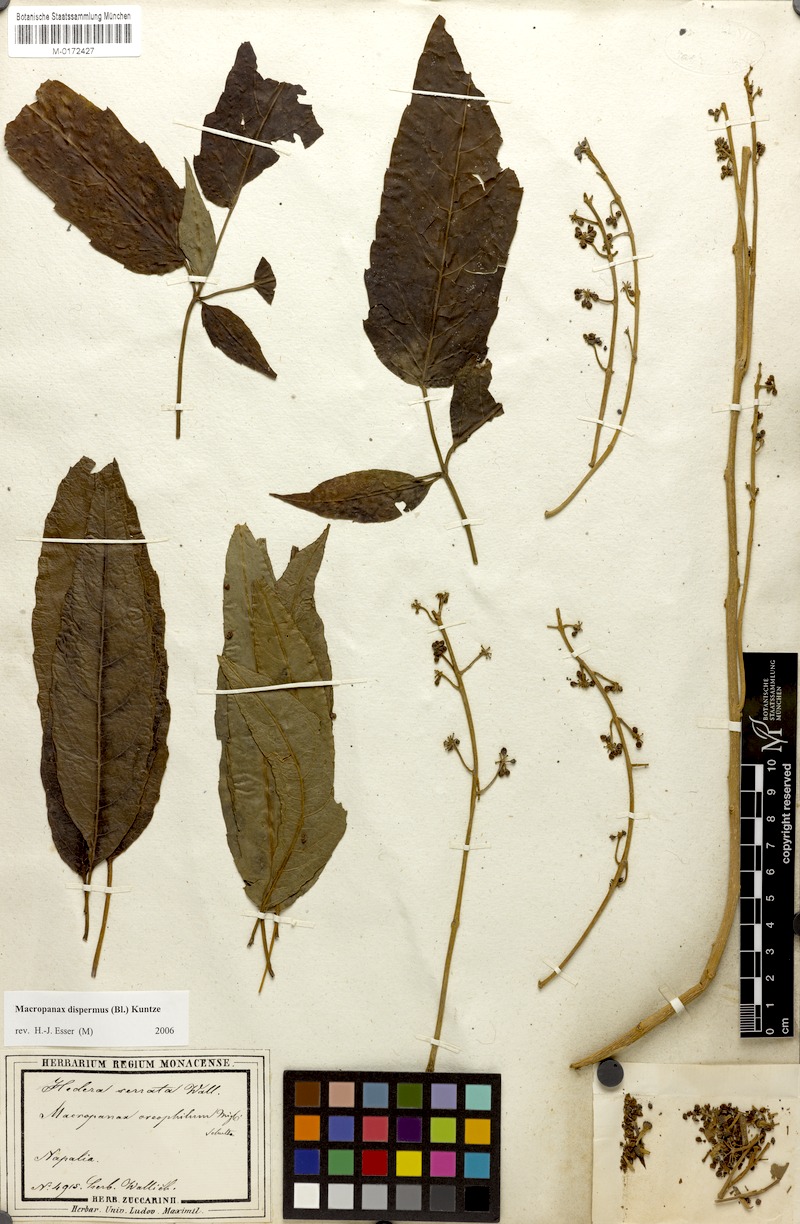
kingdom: Plantae
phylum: Tracheophyta
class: Magnoliopsida
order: Apiales
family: Araliaceae
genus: Macropanax
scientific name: Macropanax dispermus
